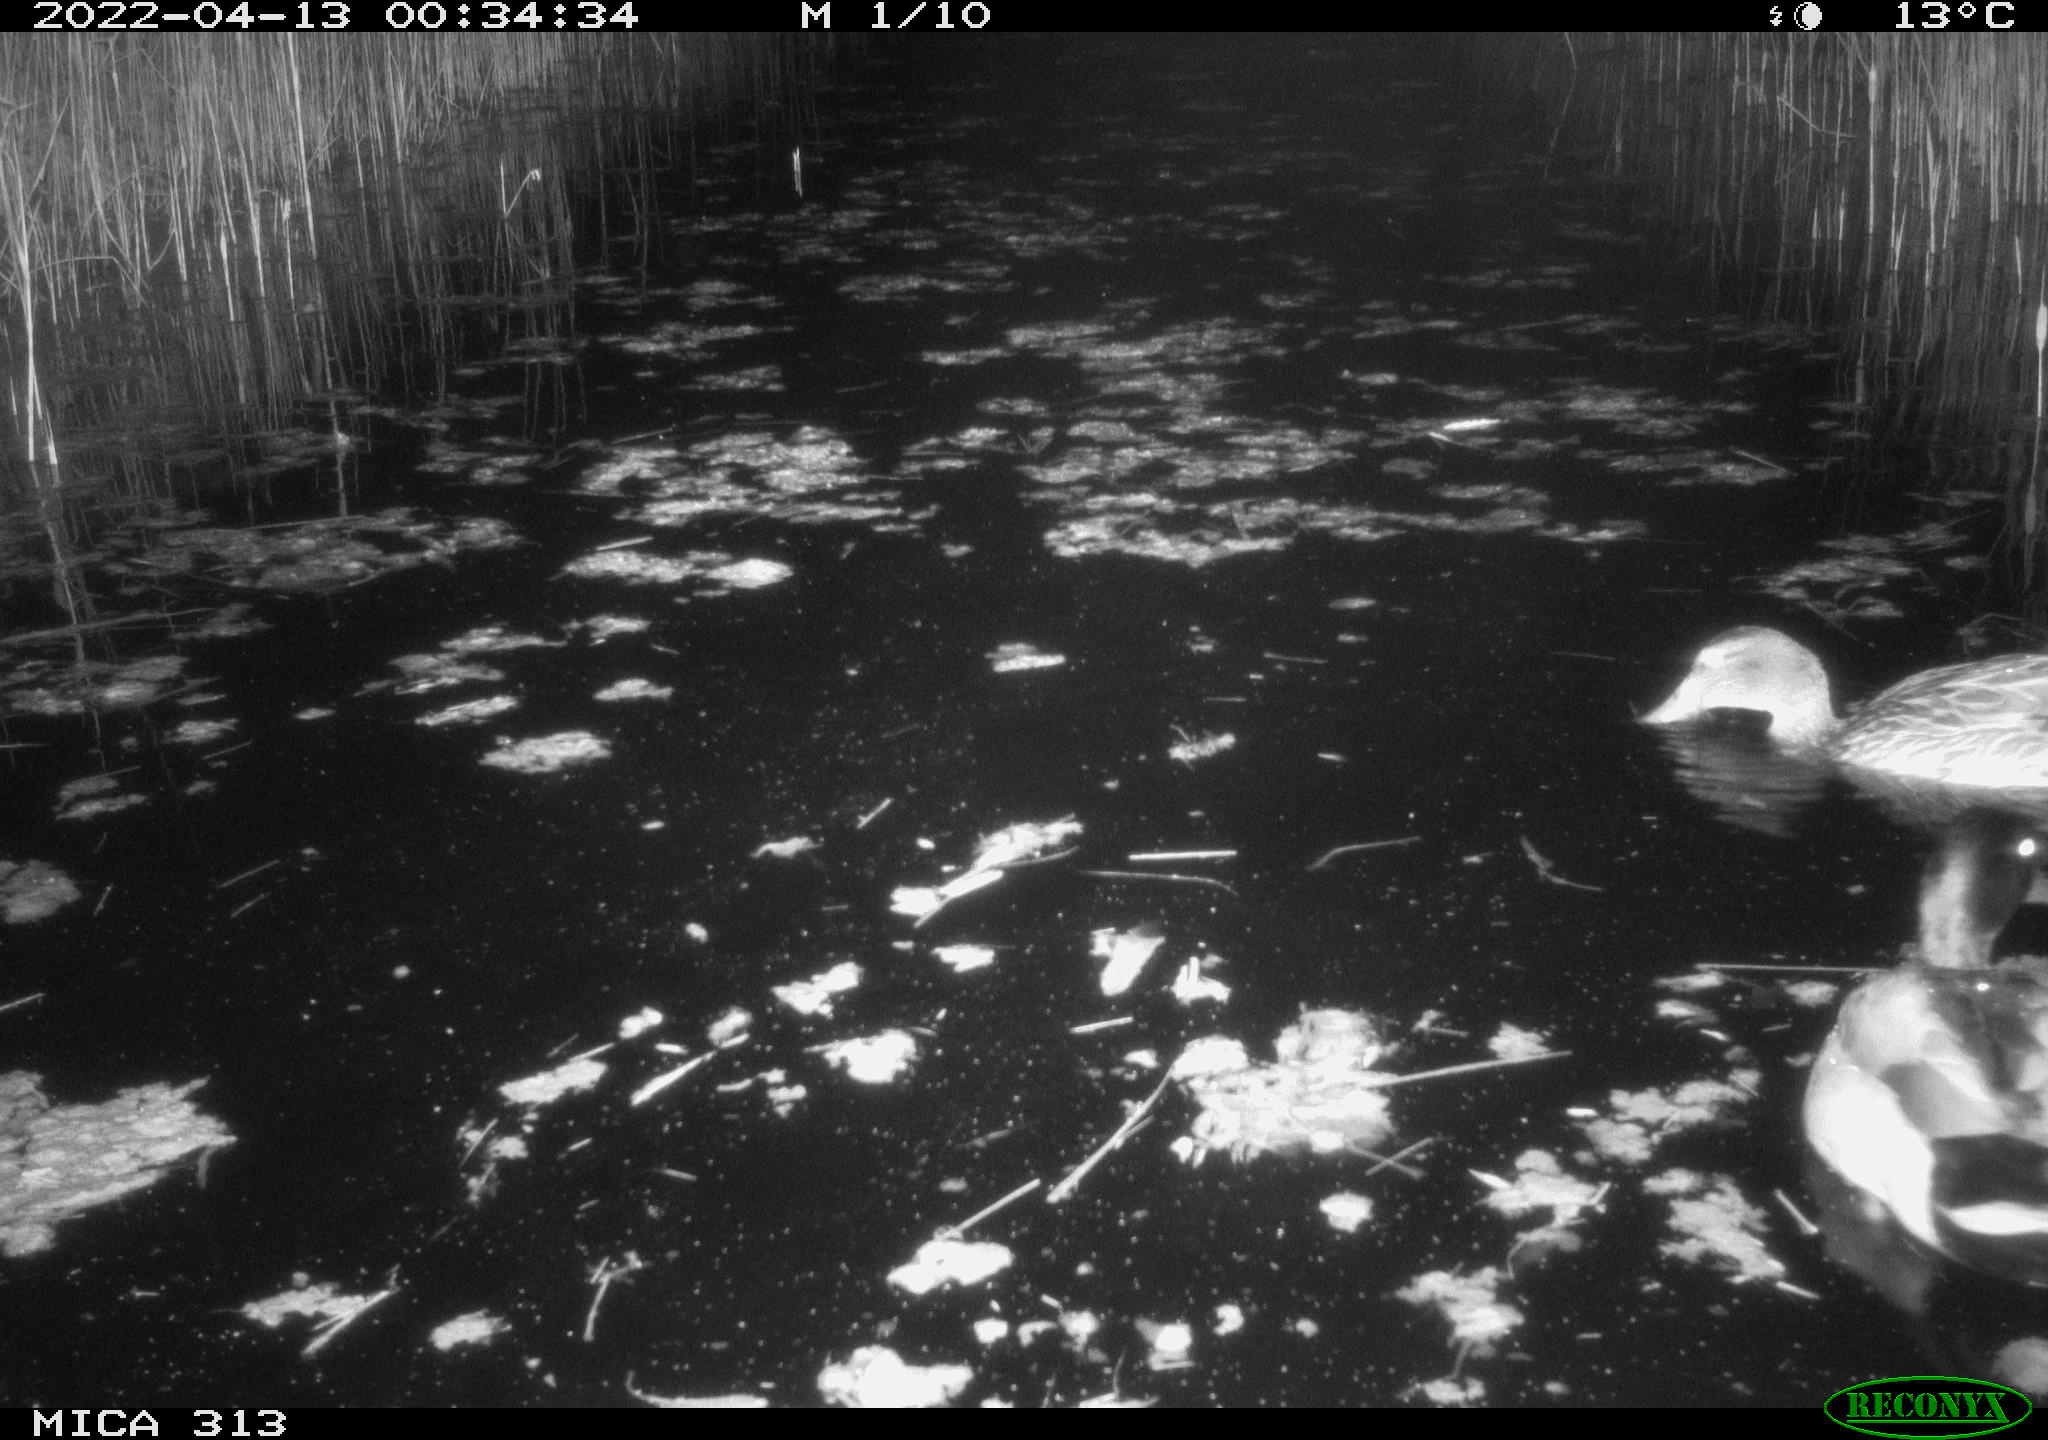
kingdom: Animalia
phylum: Chordata
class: Aves
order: Anseriformes
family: Anatidae
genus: Anas
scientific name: Anas platyrhynchos
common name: Mallard
